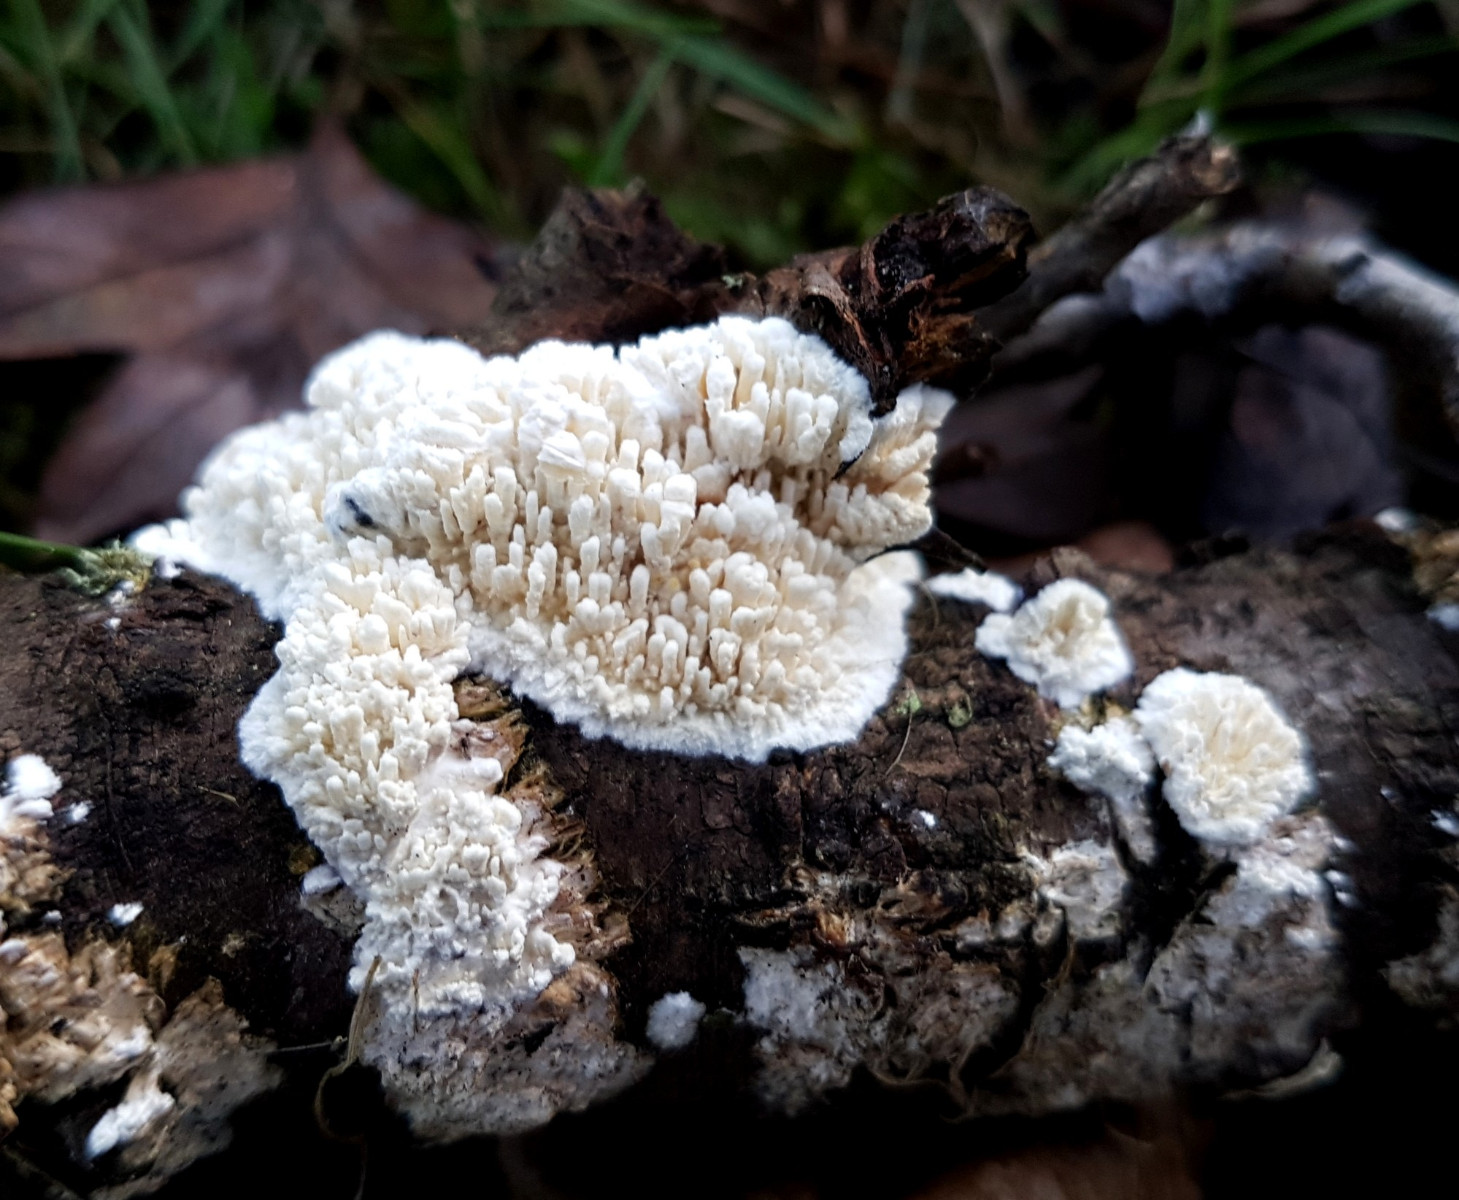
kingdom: Fungi
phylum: Basidiomycota
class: Agaricomycetes
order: Hymenochaetales
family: Schizoporaceae
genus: Xylodon
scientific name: Xylodon radula
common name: grovtandet kalkskind
